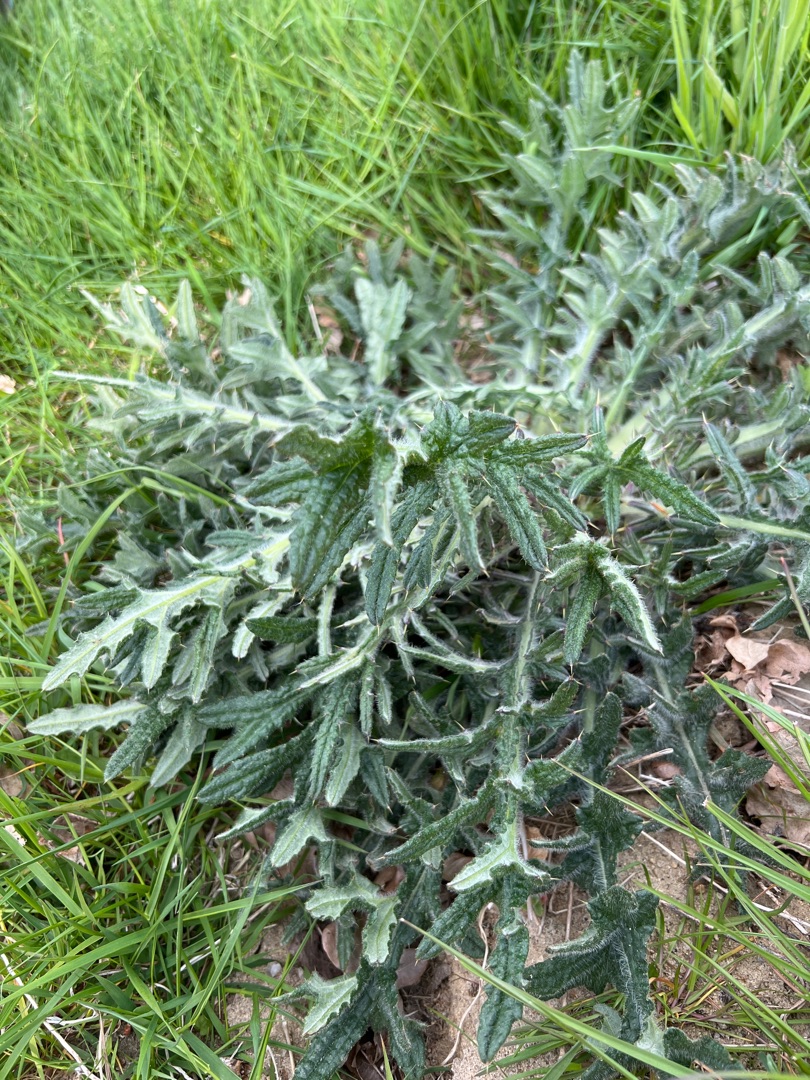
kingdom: Plantae
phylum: Tracheophyta
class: Magnoliopsida
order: Asterales
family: Asteraceae
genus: Cirsium
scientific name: Cirsium vulgare
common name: Horse-tidsel
